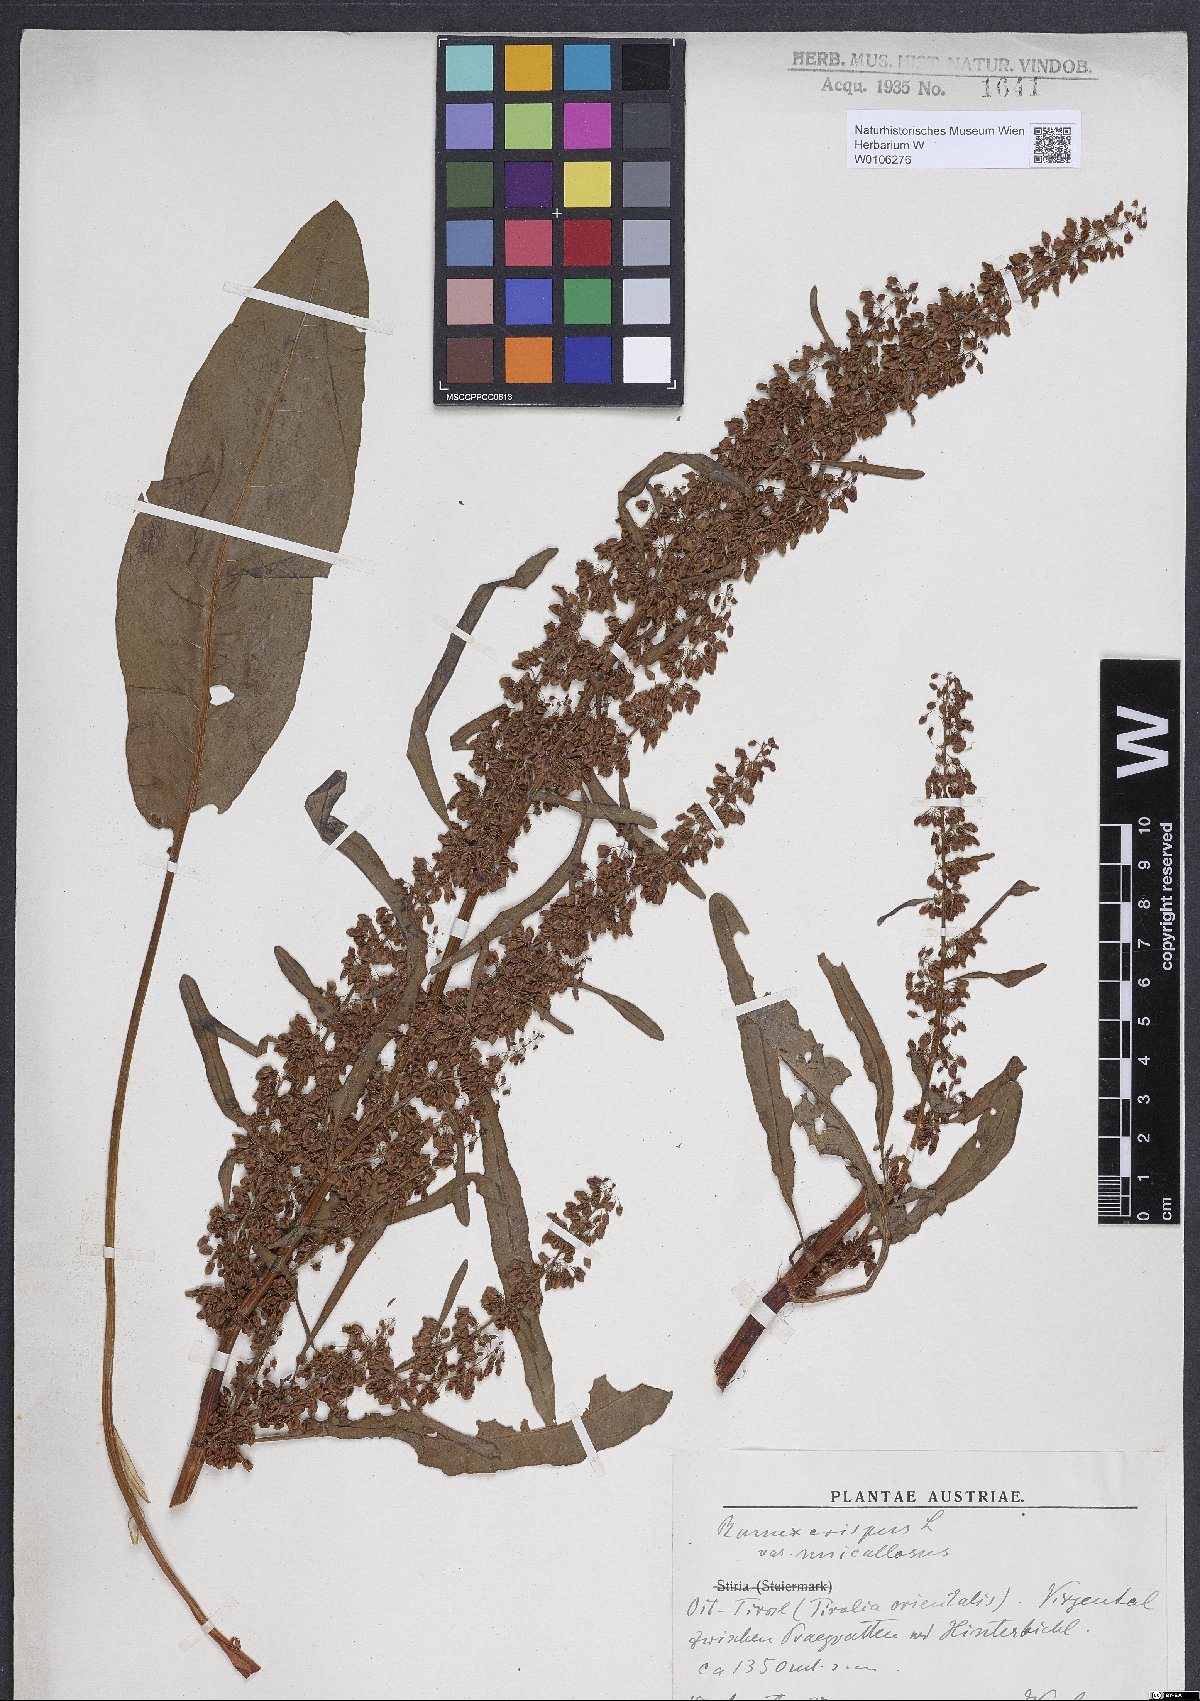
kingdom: Plantae
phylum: Tracheophyta
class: Magnoliopsida
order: Caryophyllales
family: Polygonaceae
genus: Rumex
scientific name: Rumex crispus
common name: Curled dock
